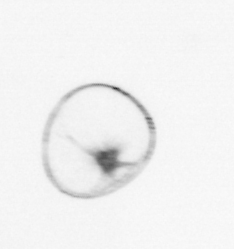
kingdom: Chromista
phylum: Myzozoa
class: Dinophyceae
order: Noctilucales
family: Noctilucaceae
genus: Noctiluca
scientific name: Noctiluca scintillans
